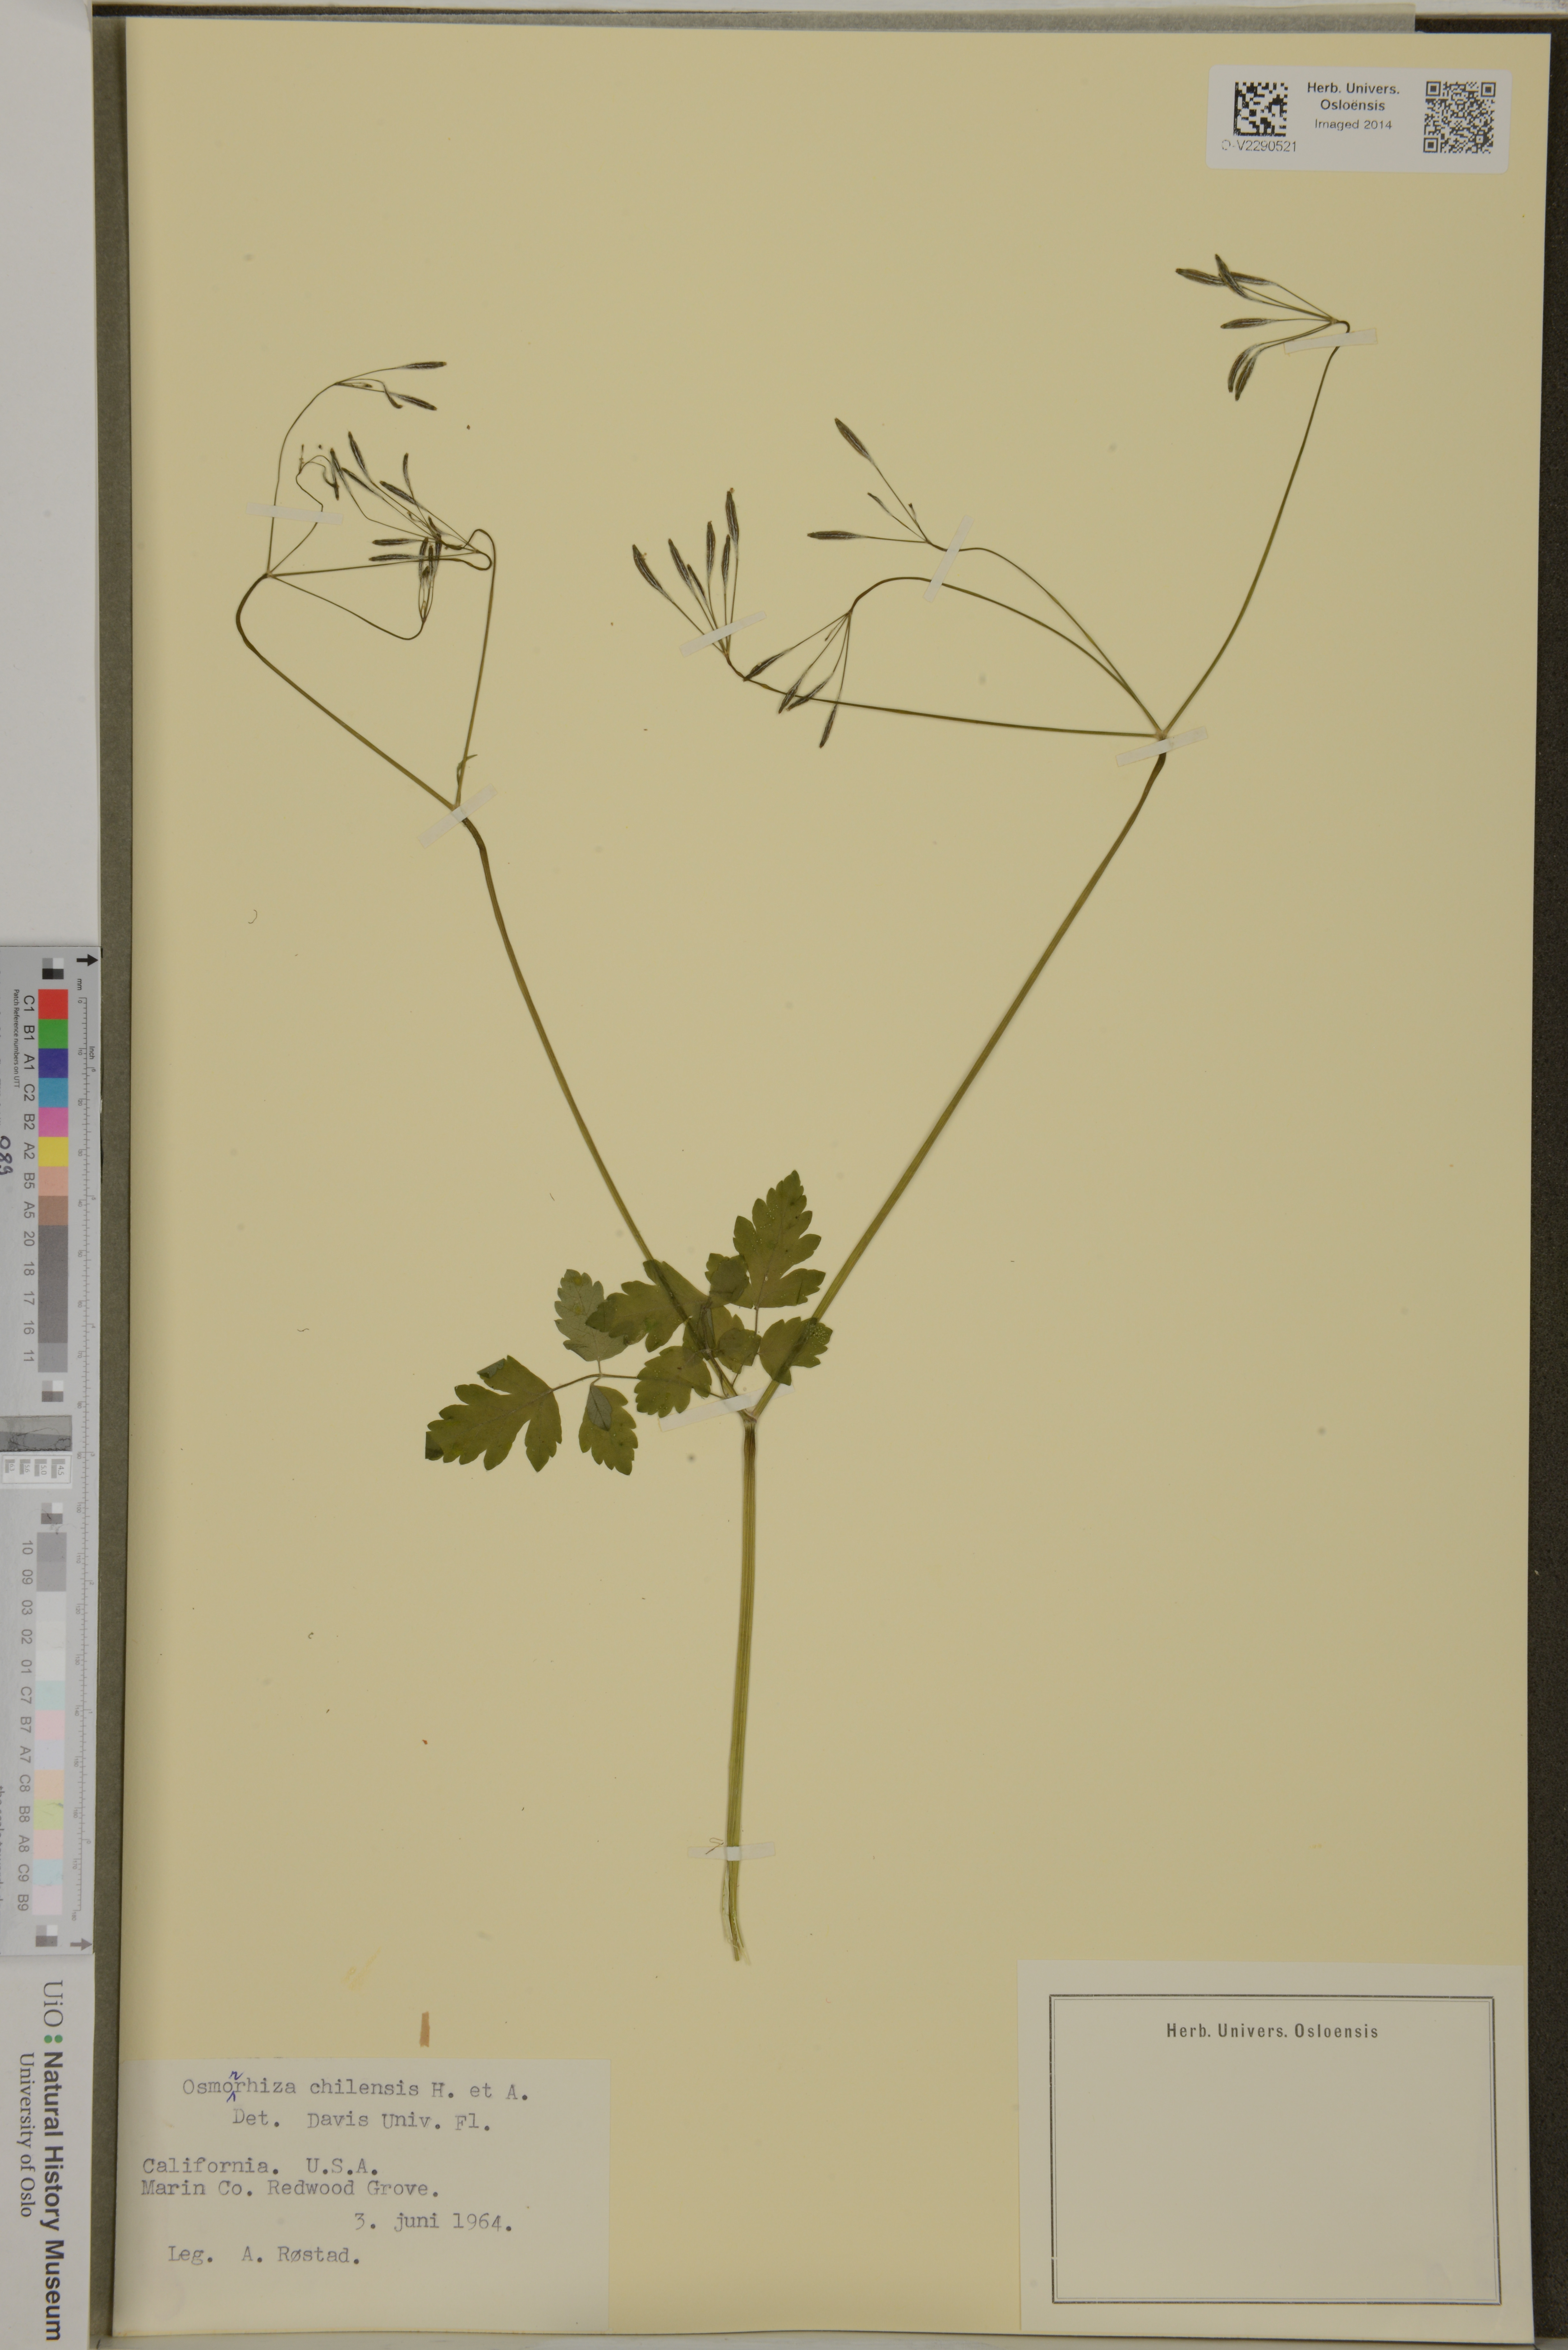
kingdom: Plantae
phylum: Tracheophyta
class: Magnoliopsida
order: Apiales
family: Apiaceae
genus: Osmorhiza
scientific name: Osmorhiza berteroi
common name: Mountain sweet cicely
